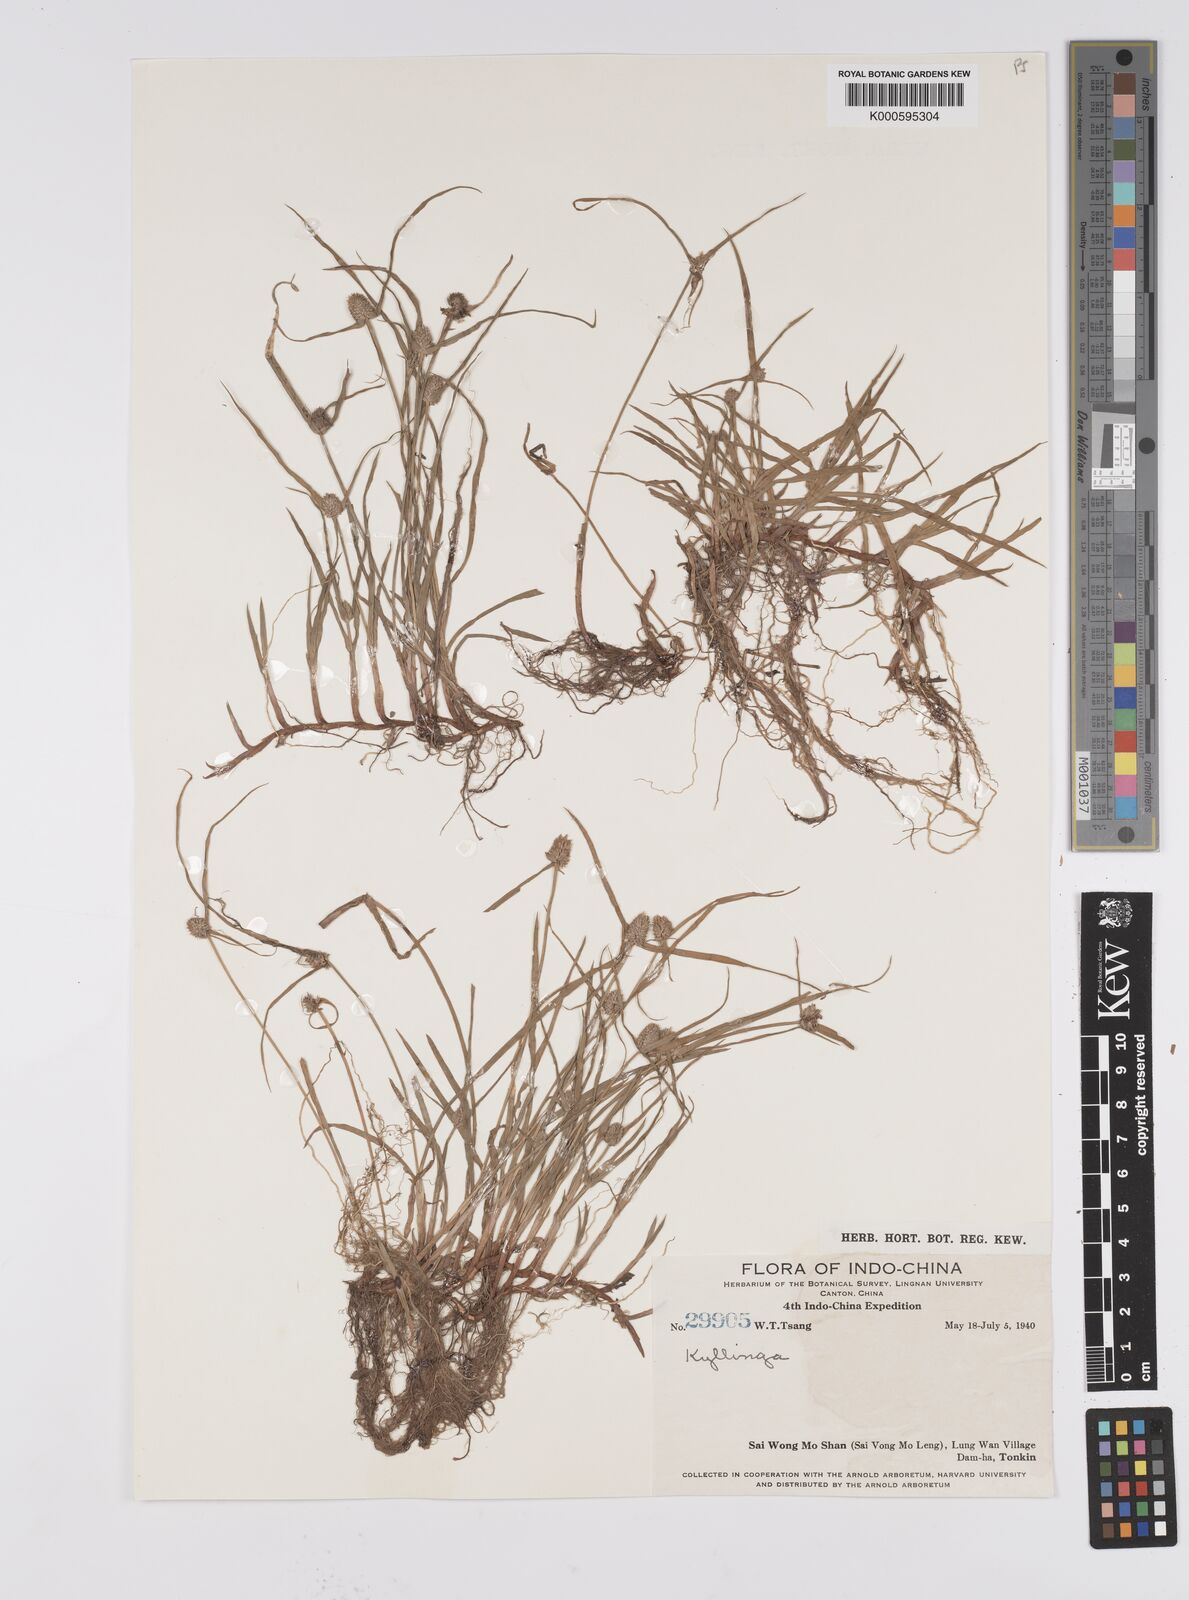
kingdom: Plantae
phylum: Tracheophyta
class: Liliopsida
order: Poales
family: Cyperaceae
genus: Cyperus
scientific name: Cyperus brevifolius
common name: Globe kyllinga
